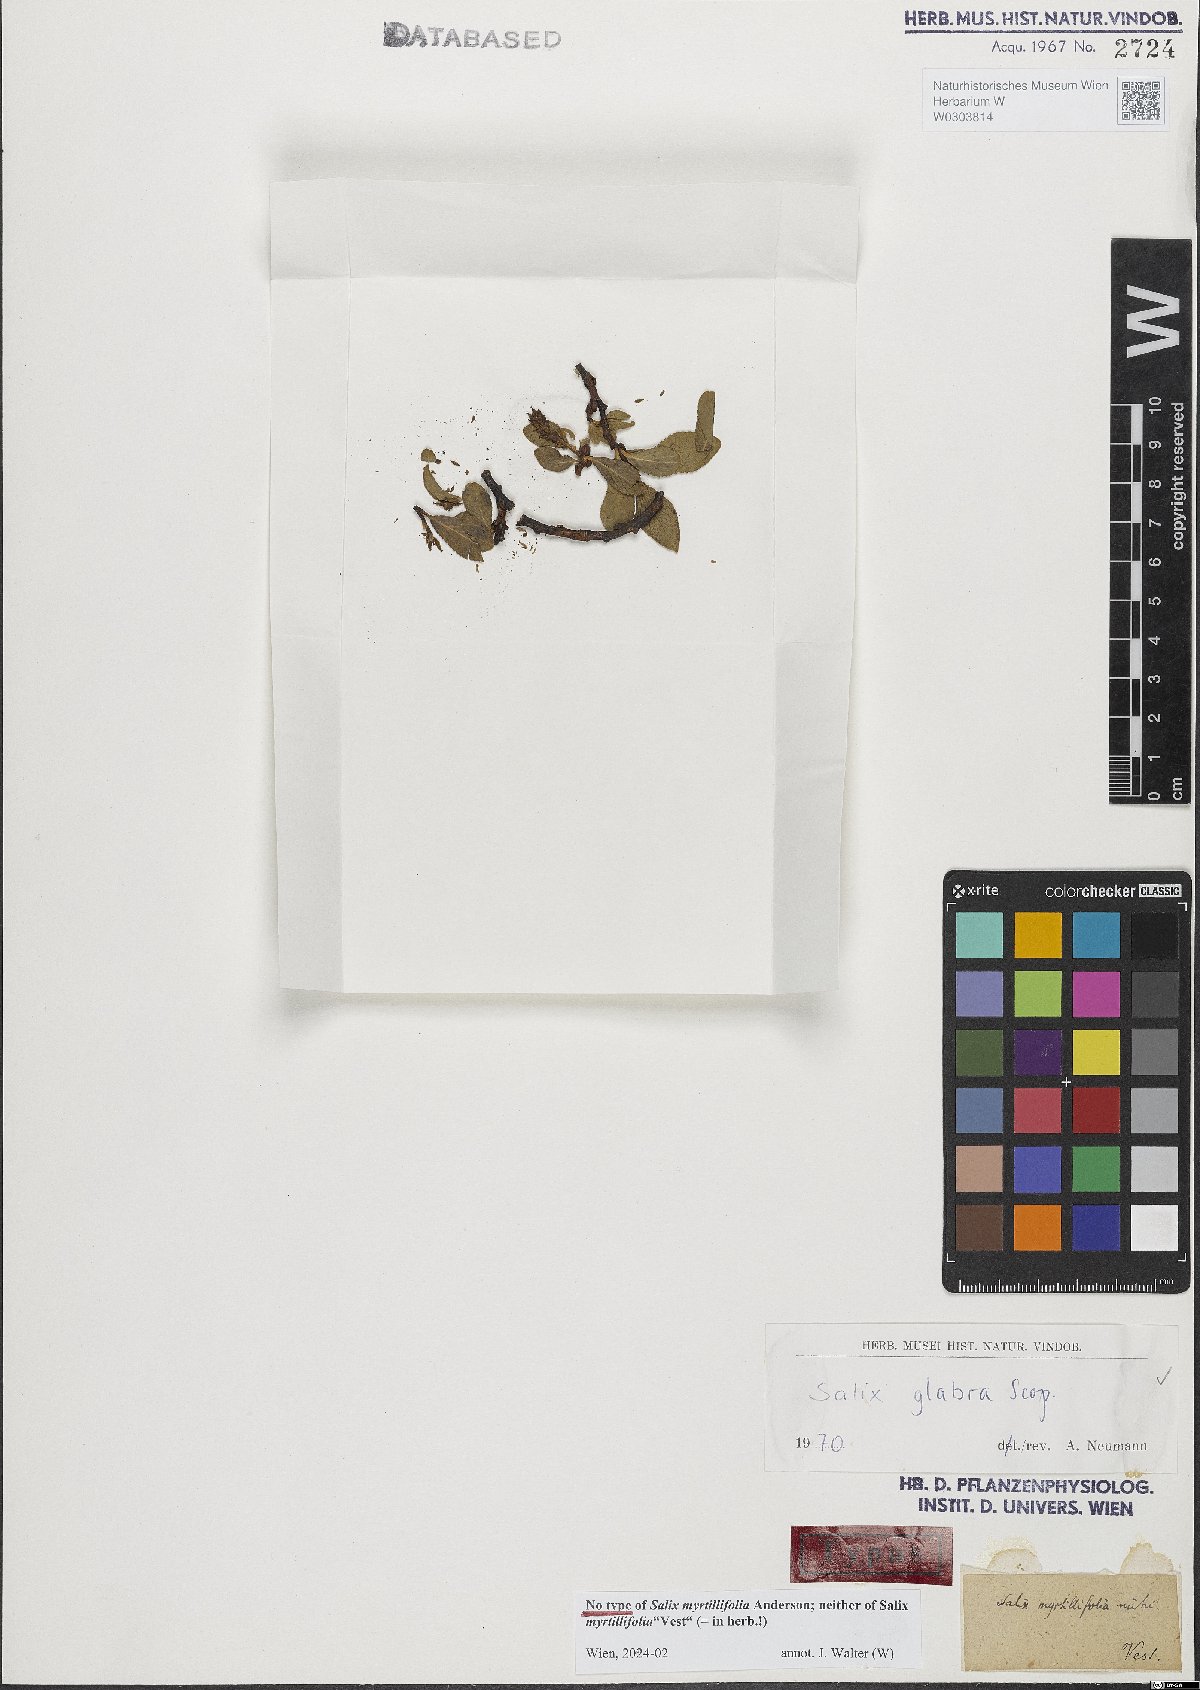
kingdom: Plantae
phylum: Tracheophyta
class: Magnoliopsida
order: Malpighiales
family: Salicaceae
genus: Salix
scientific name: Salix glabra
